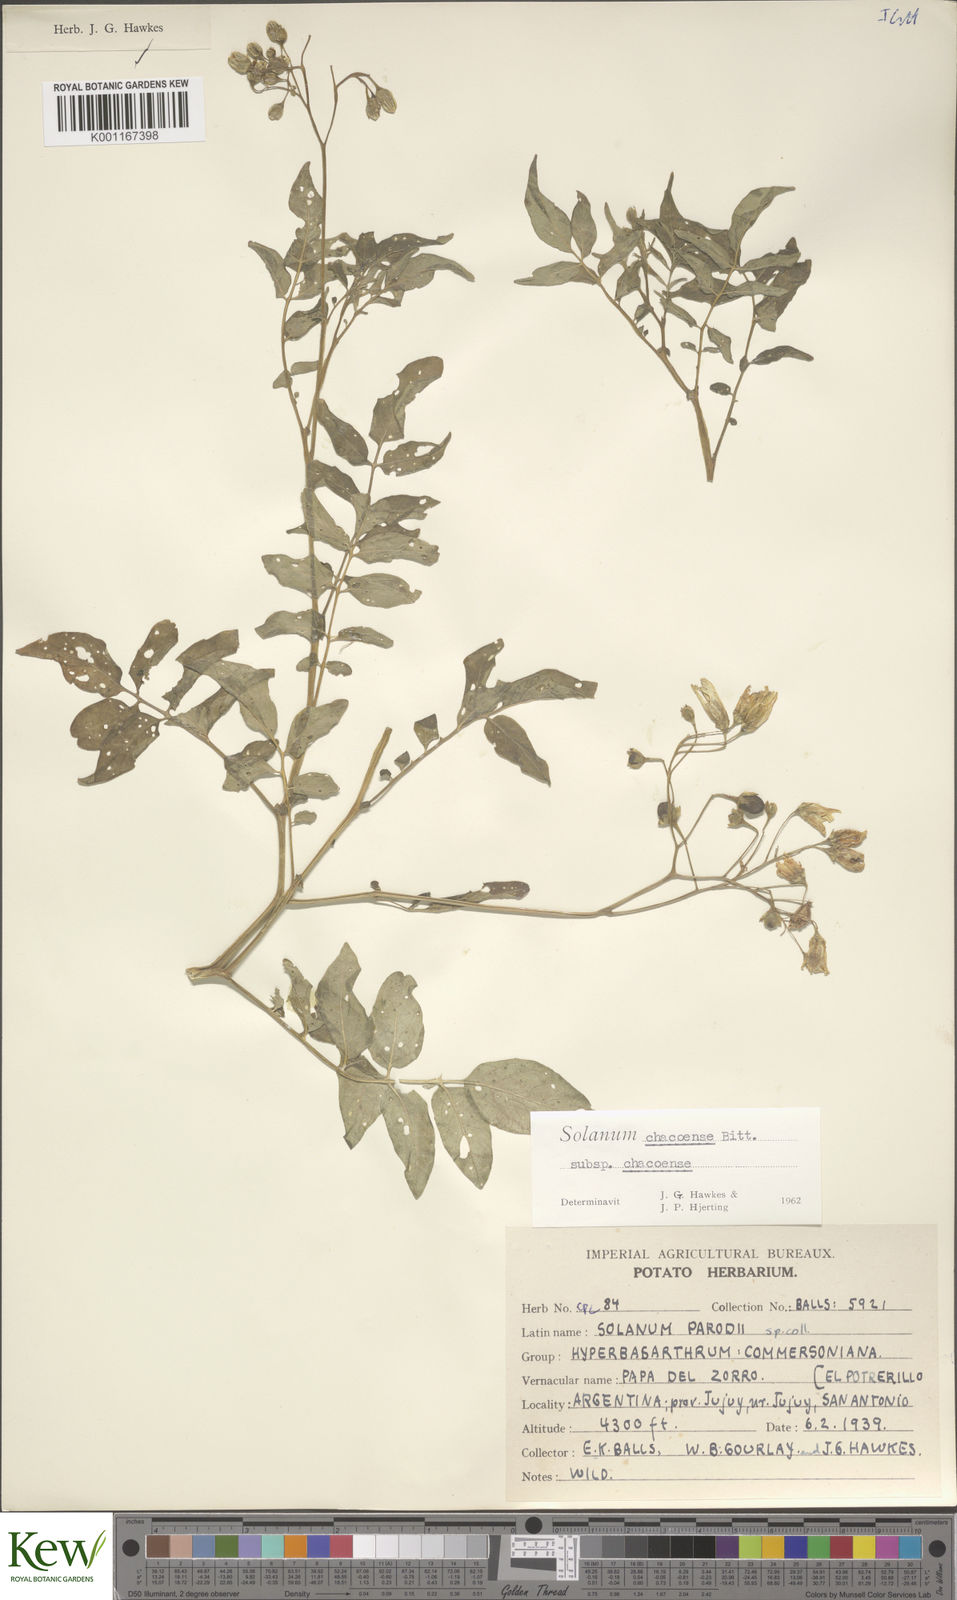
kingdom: Plantae
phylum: Tracheophyta
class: Magnoliopsida
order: Solanales
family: Solanaceae
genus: Solanum
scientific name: Solanum chacoense
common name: Chaco potato
